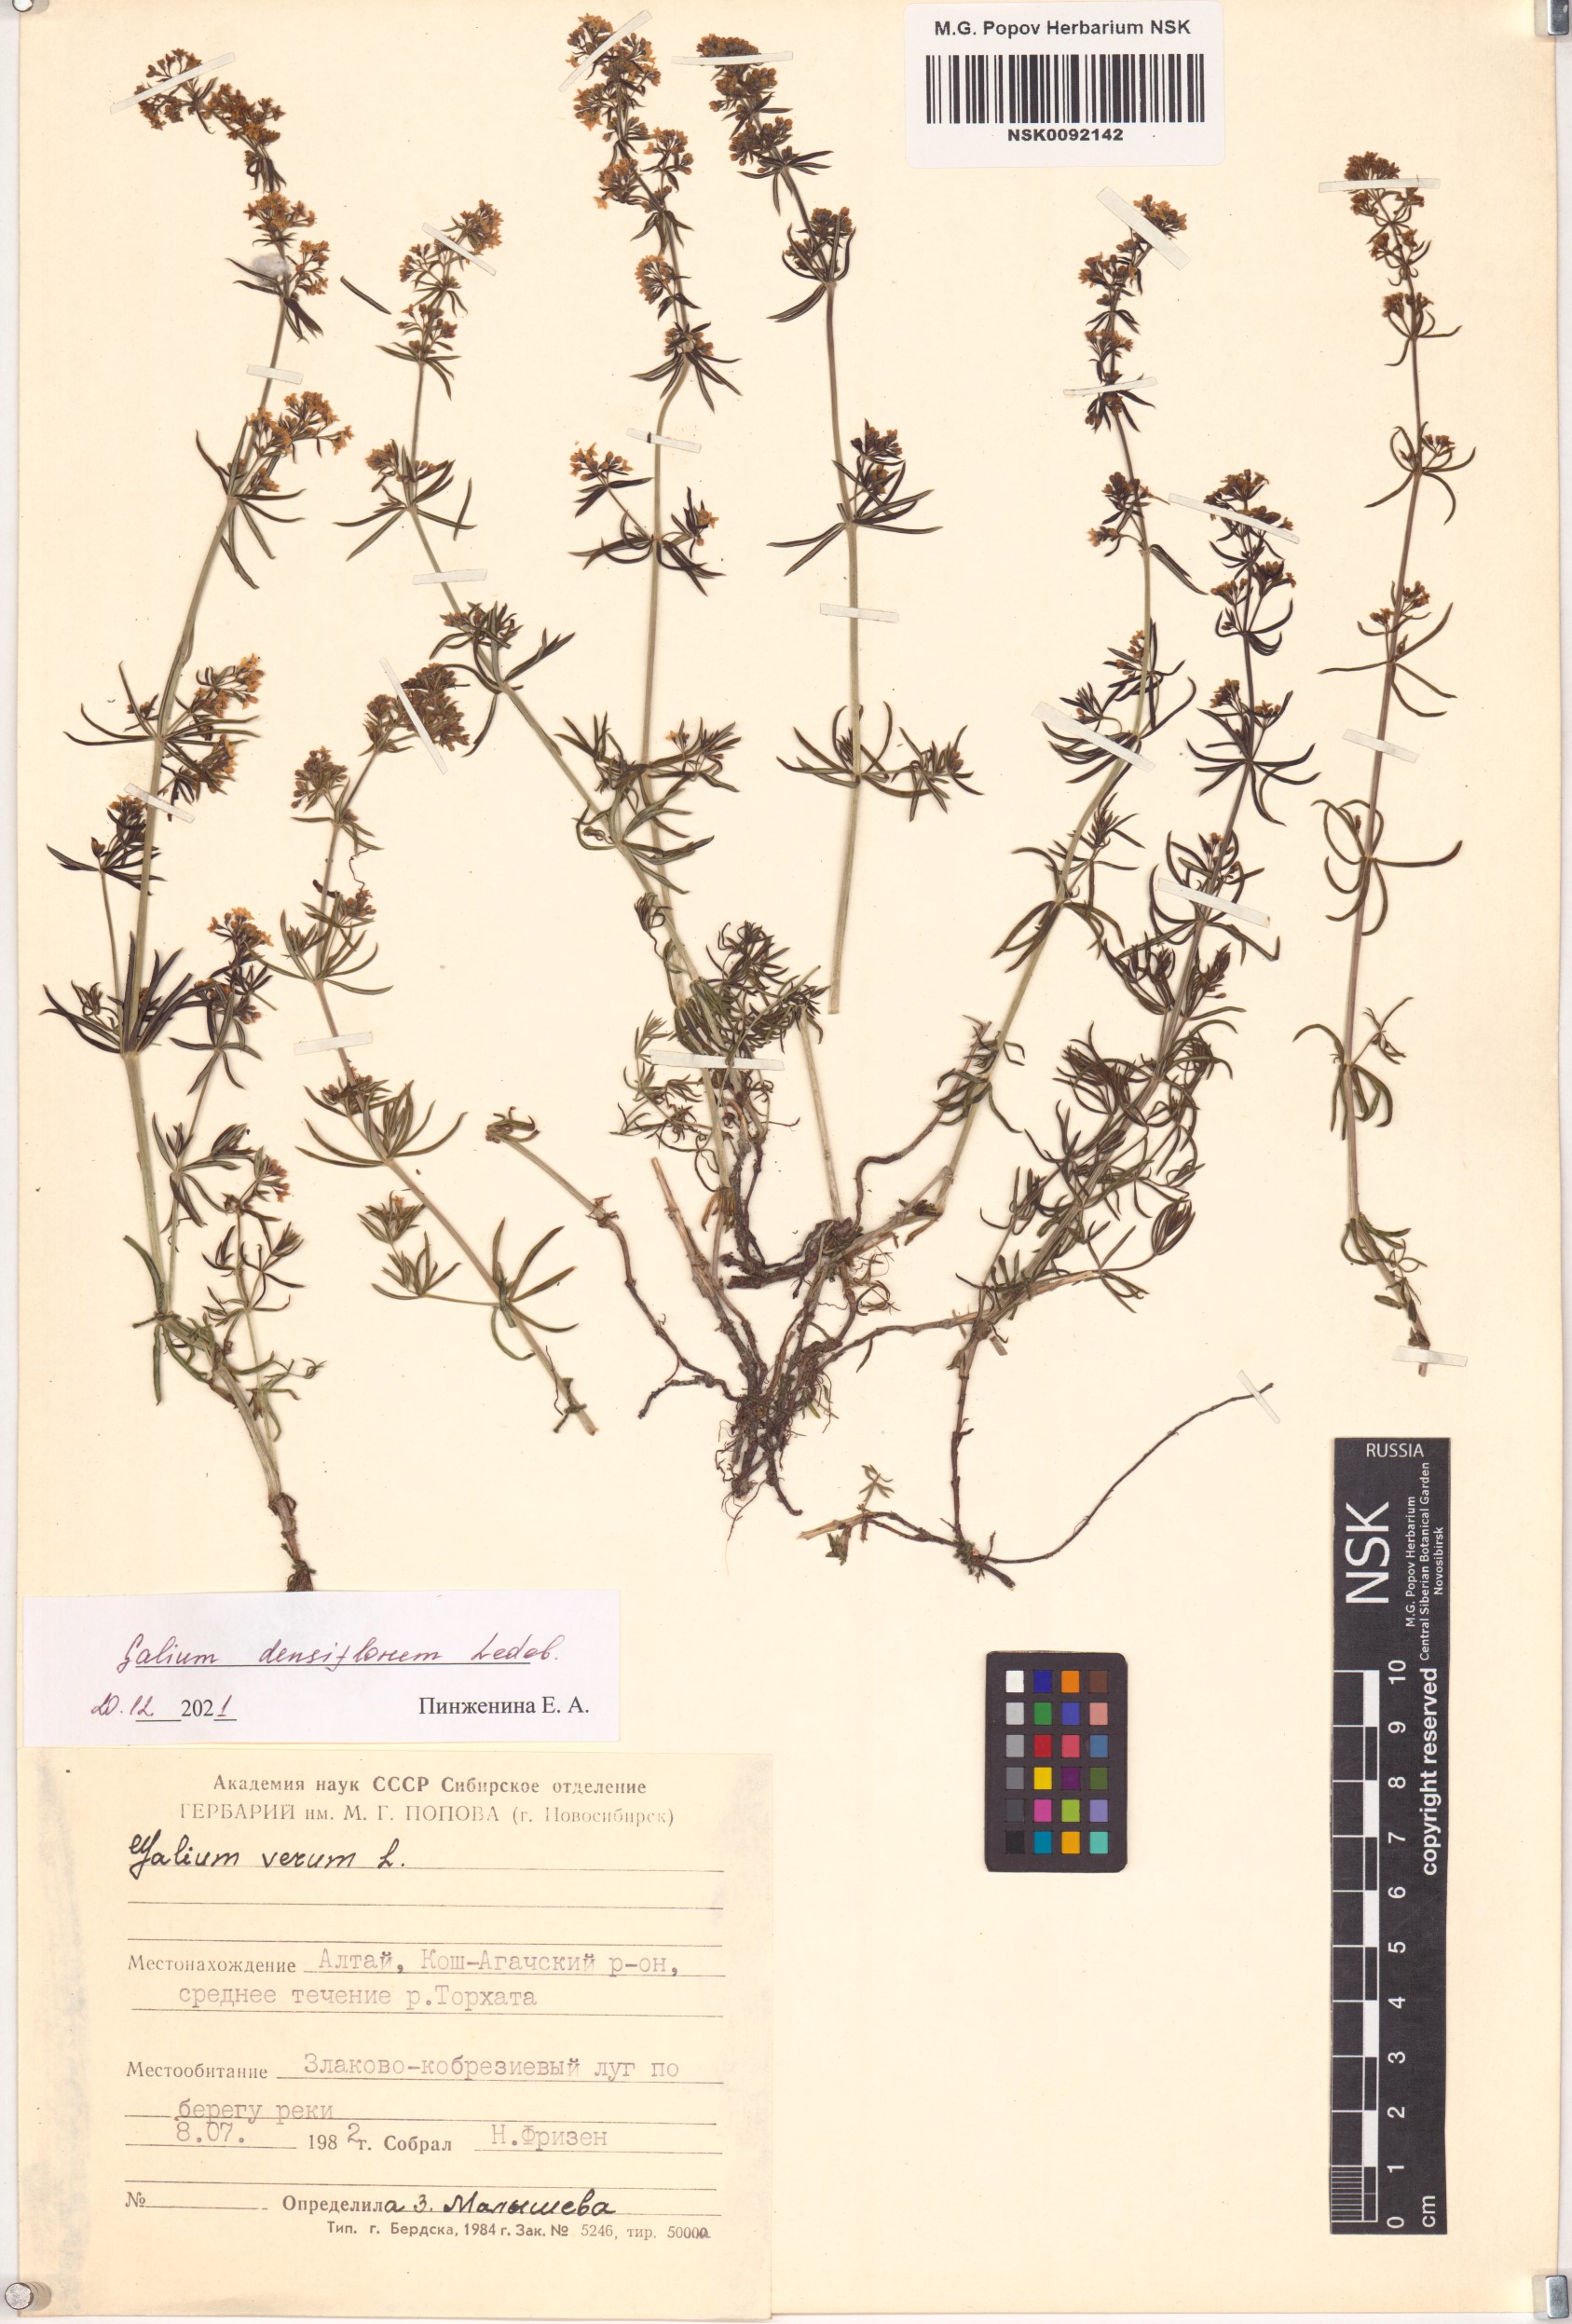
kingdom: Plantae
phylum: Tracheophyta
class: Magnoliopsida
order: Gentianales
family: Rubiaceae
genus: Galium
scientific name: Galium densiflorum
